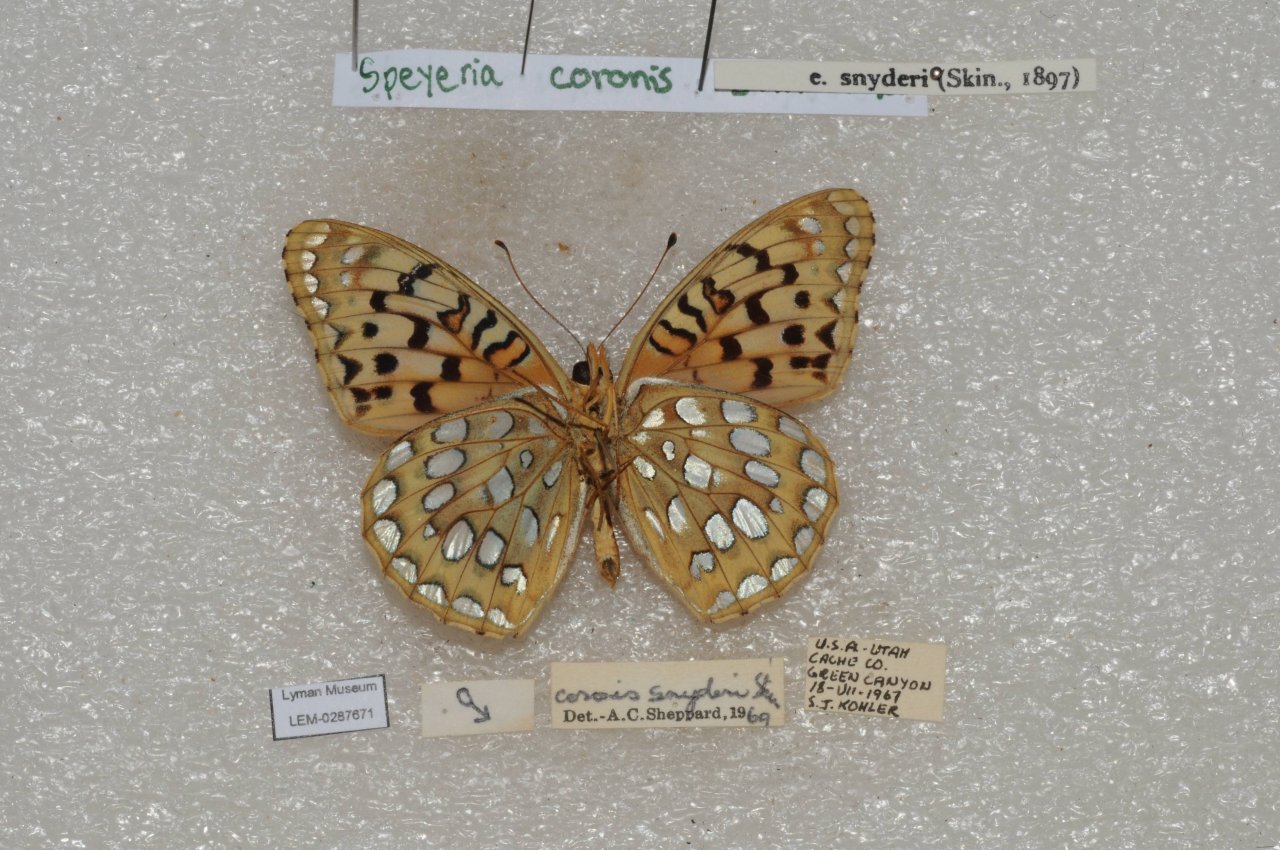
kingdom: Animalia
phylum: Arthropoda
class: Insecta
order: Lepidoptera
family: Nymphalidae
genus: Speyeria
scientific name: Speyeria coronis
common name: Coronis Fritillary
